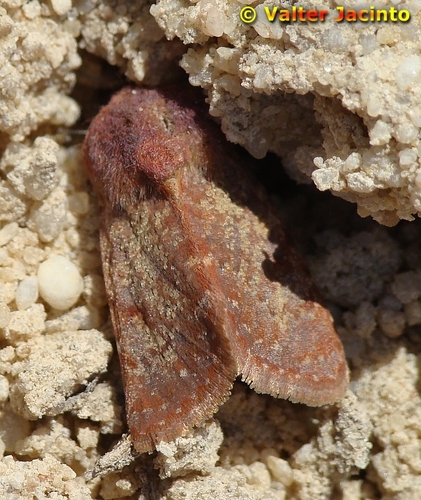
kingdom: Animalia
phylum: Arthropoda
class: Insecta
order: Lepidoptera
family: Noctuidae
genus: Metopoceras
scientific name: Metopoceras felicina
